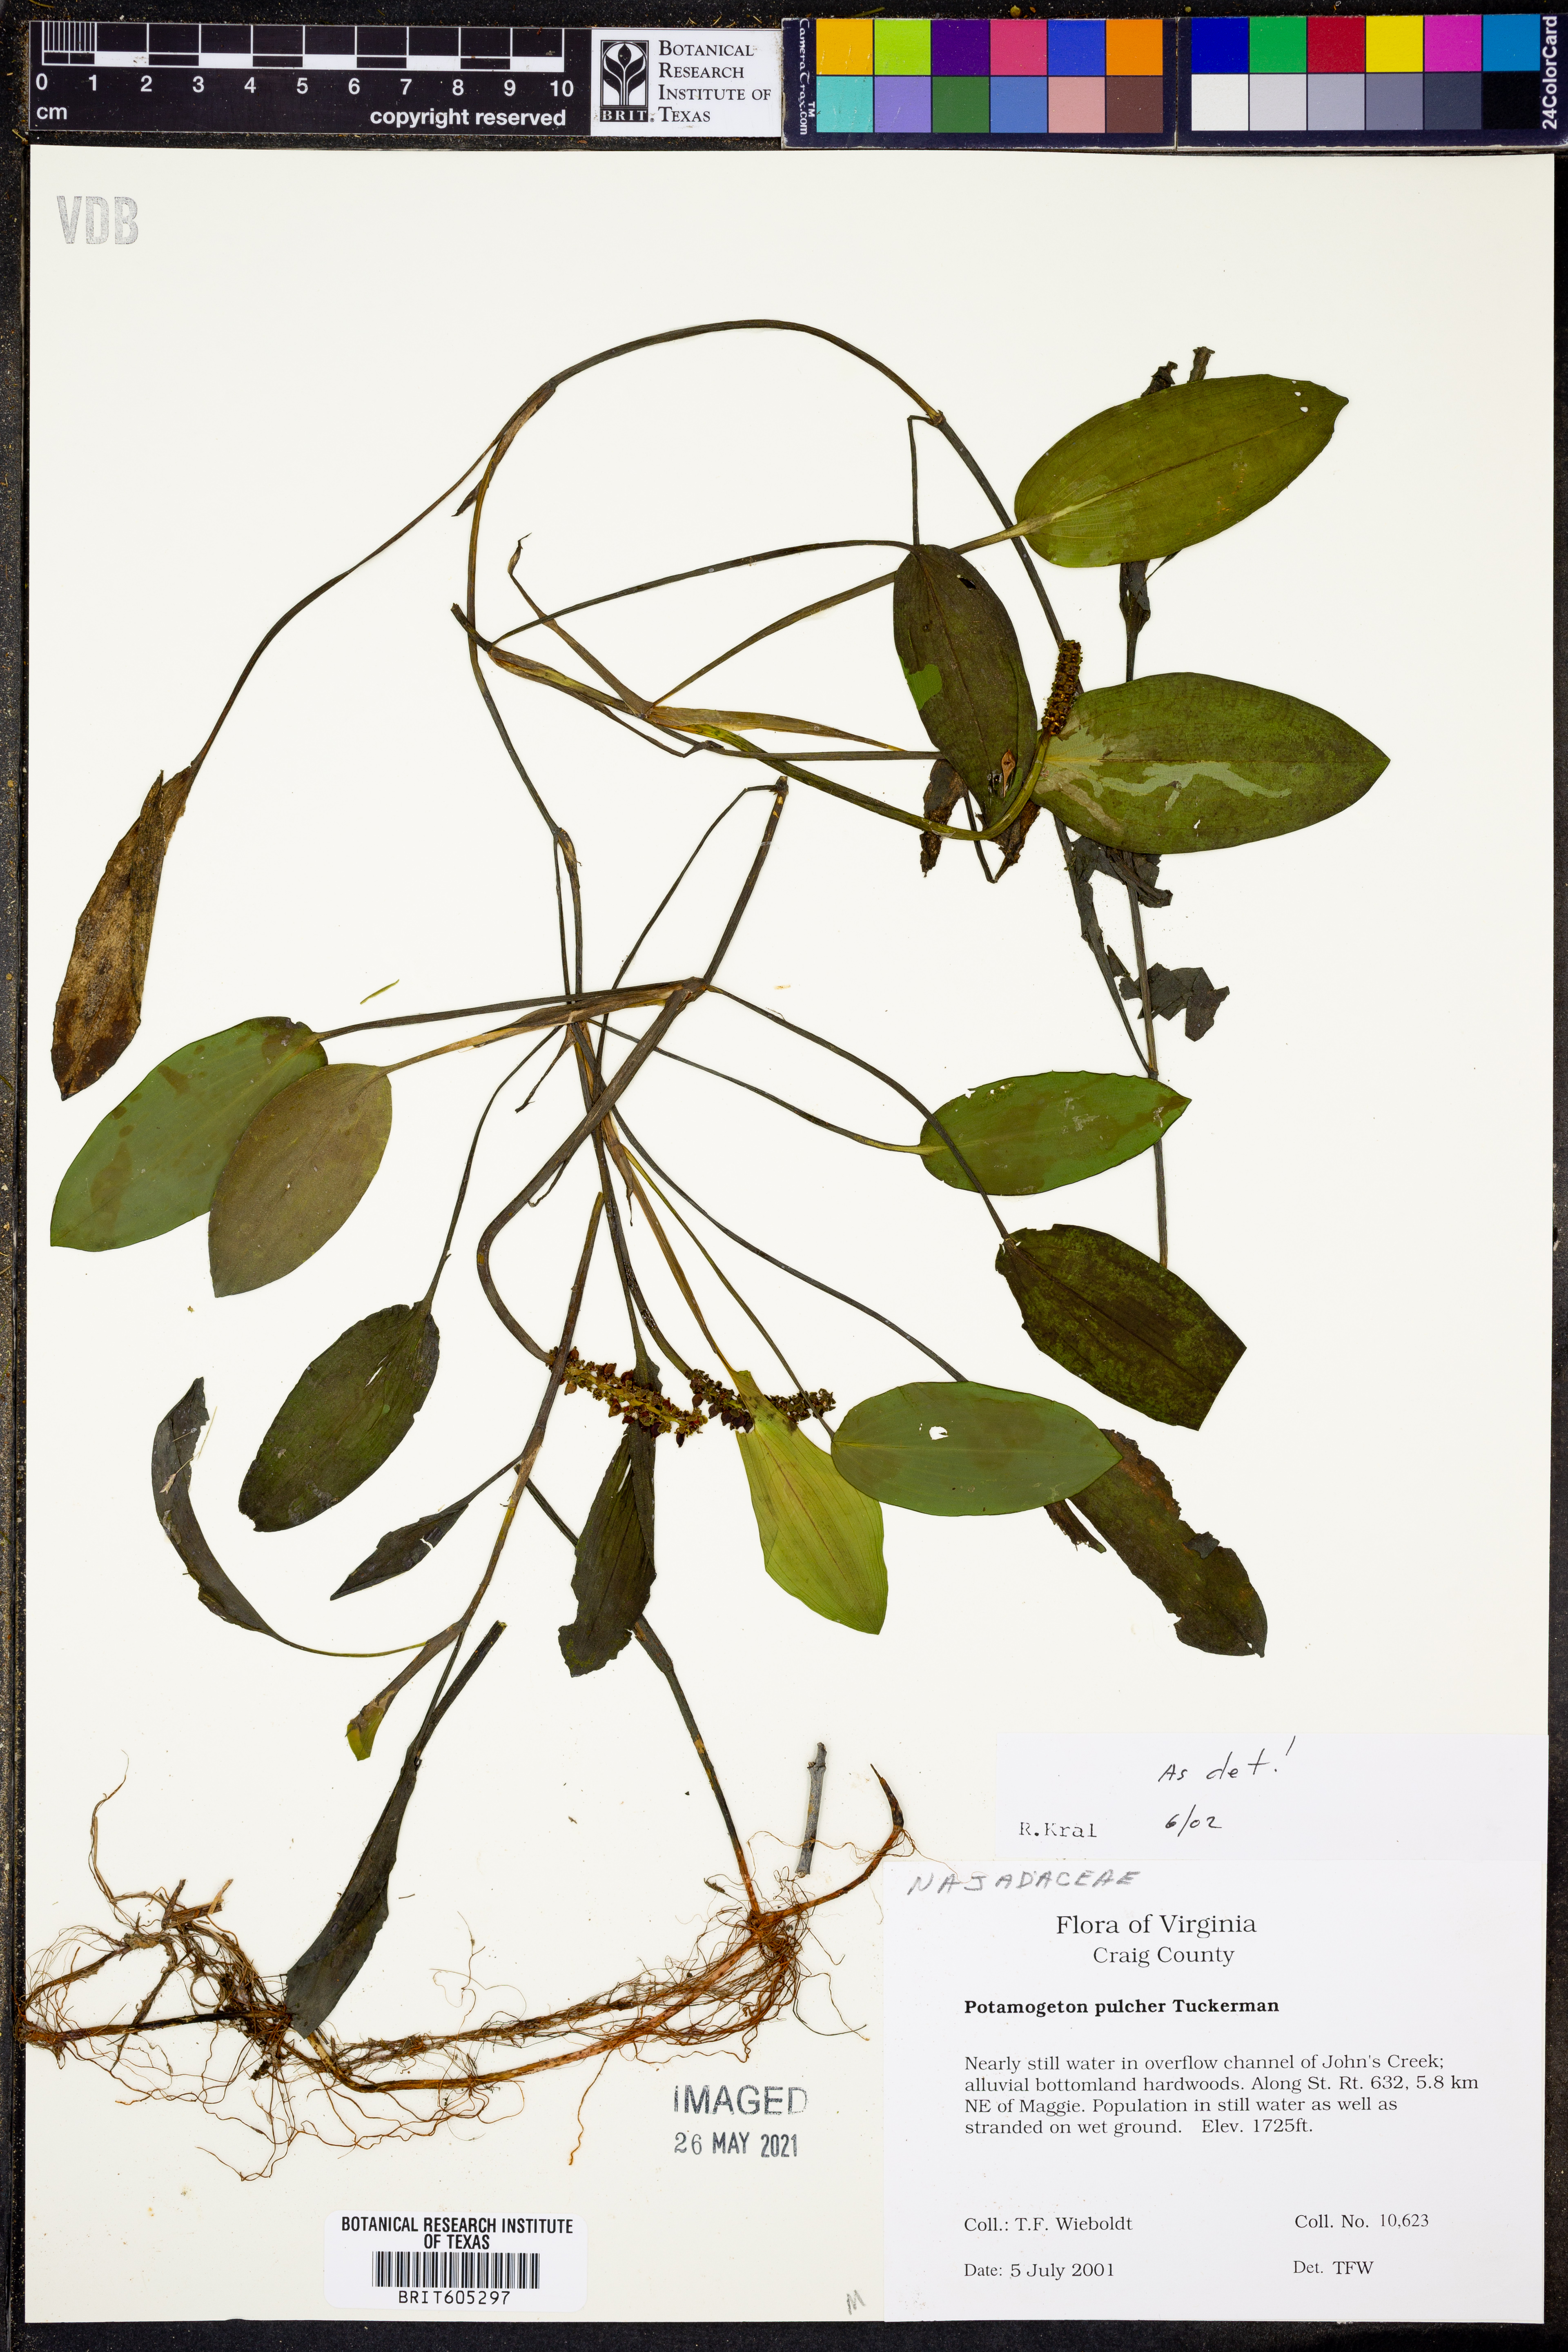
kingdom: Plantae
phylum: Tracheophyta
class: Liliopsida
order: Alismatales
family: Potamogetonaceae
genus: Potamogeton
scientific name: Potamogeton pulcher
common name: Heart-leaved pondweed
